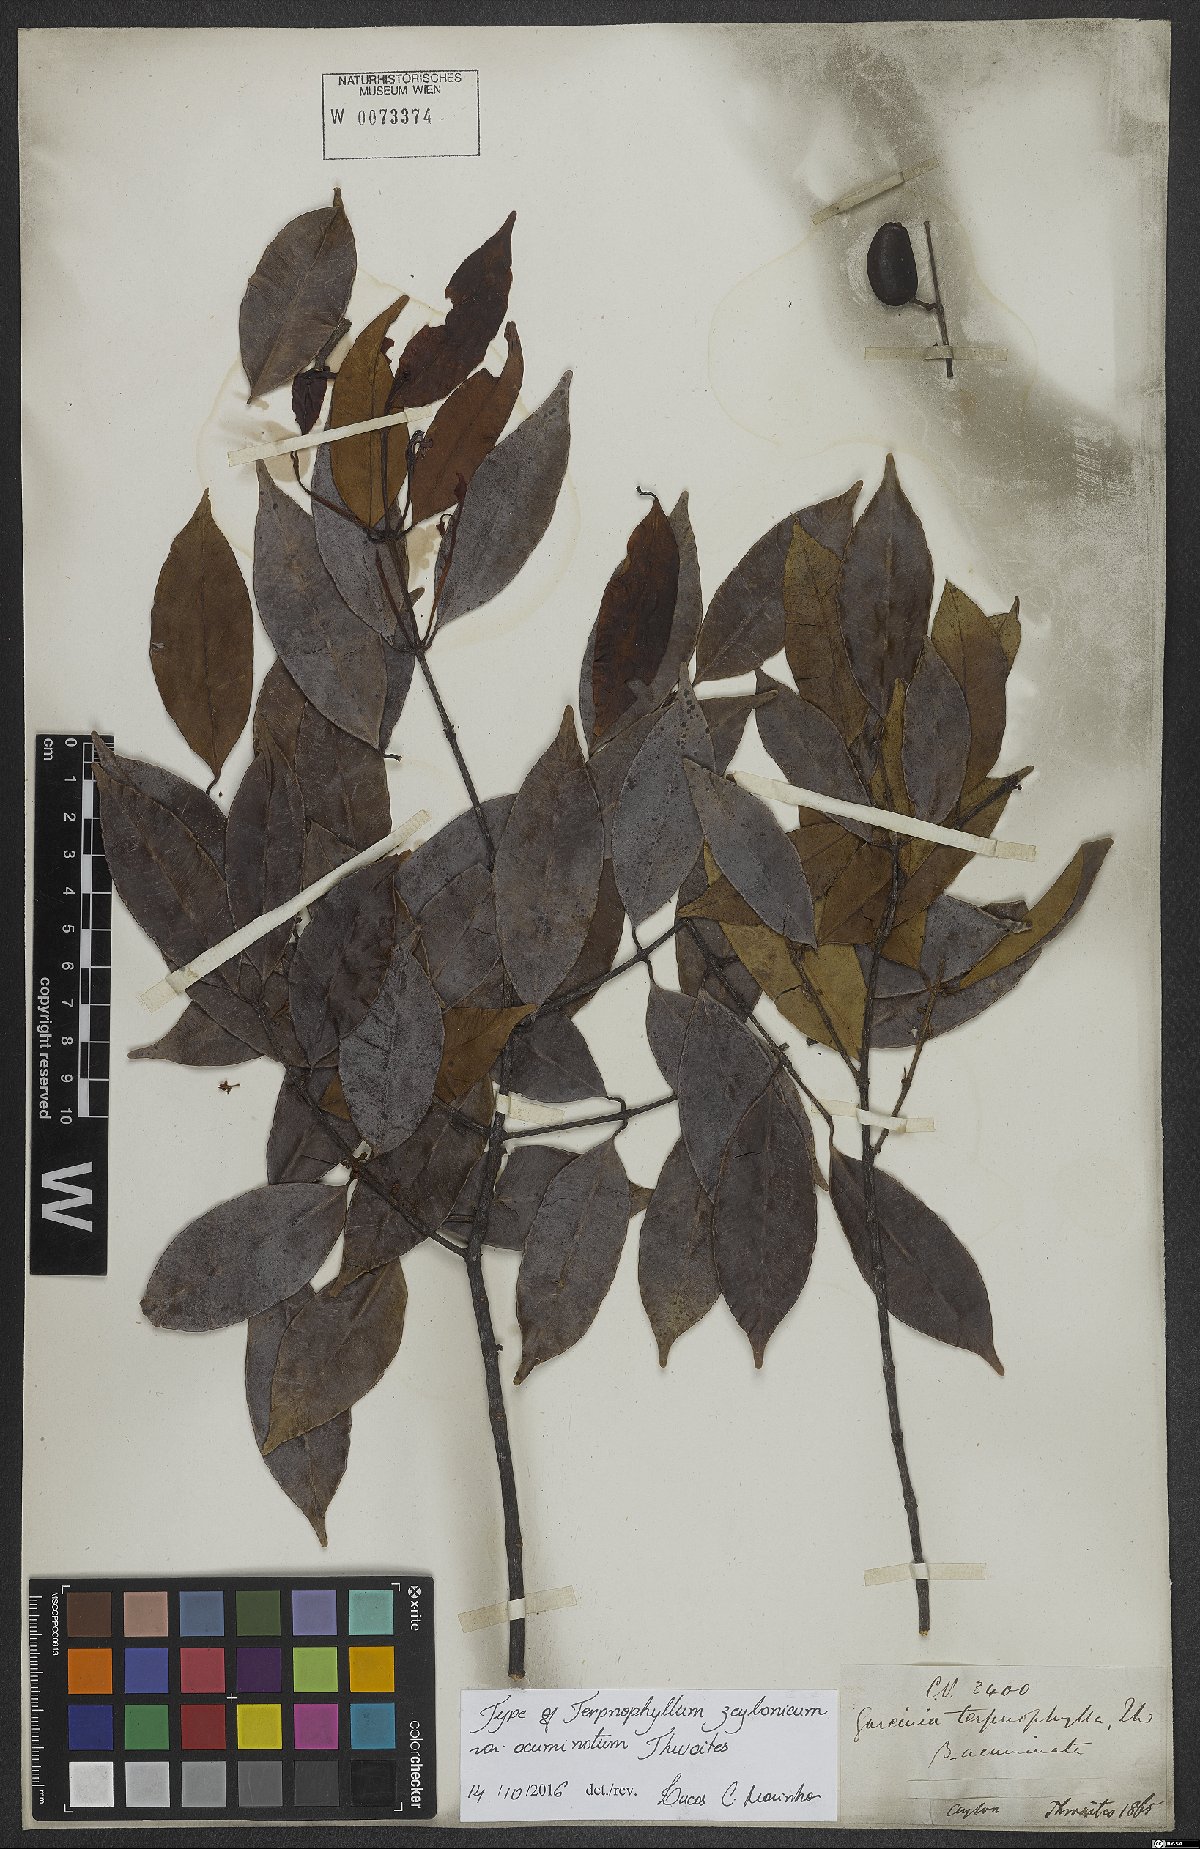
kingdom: Plantae
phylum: Tracheophyta
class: Magnoliopsida
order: Malpighiales
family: Clusiaceae
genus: Garcinia
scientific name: Garcinia terpnophylla
